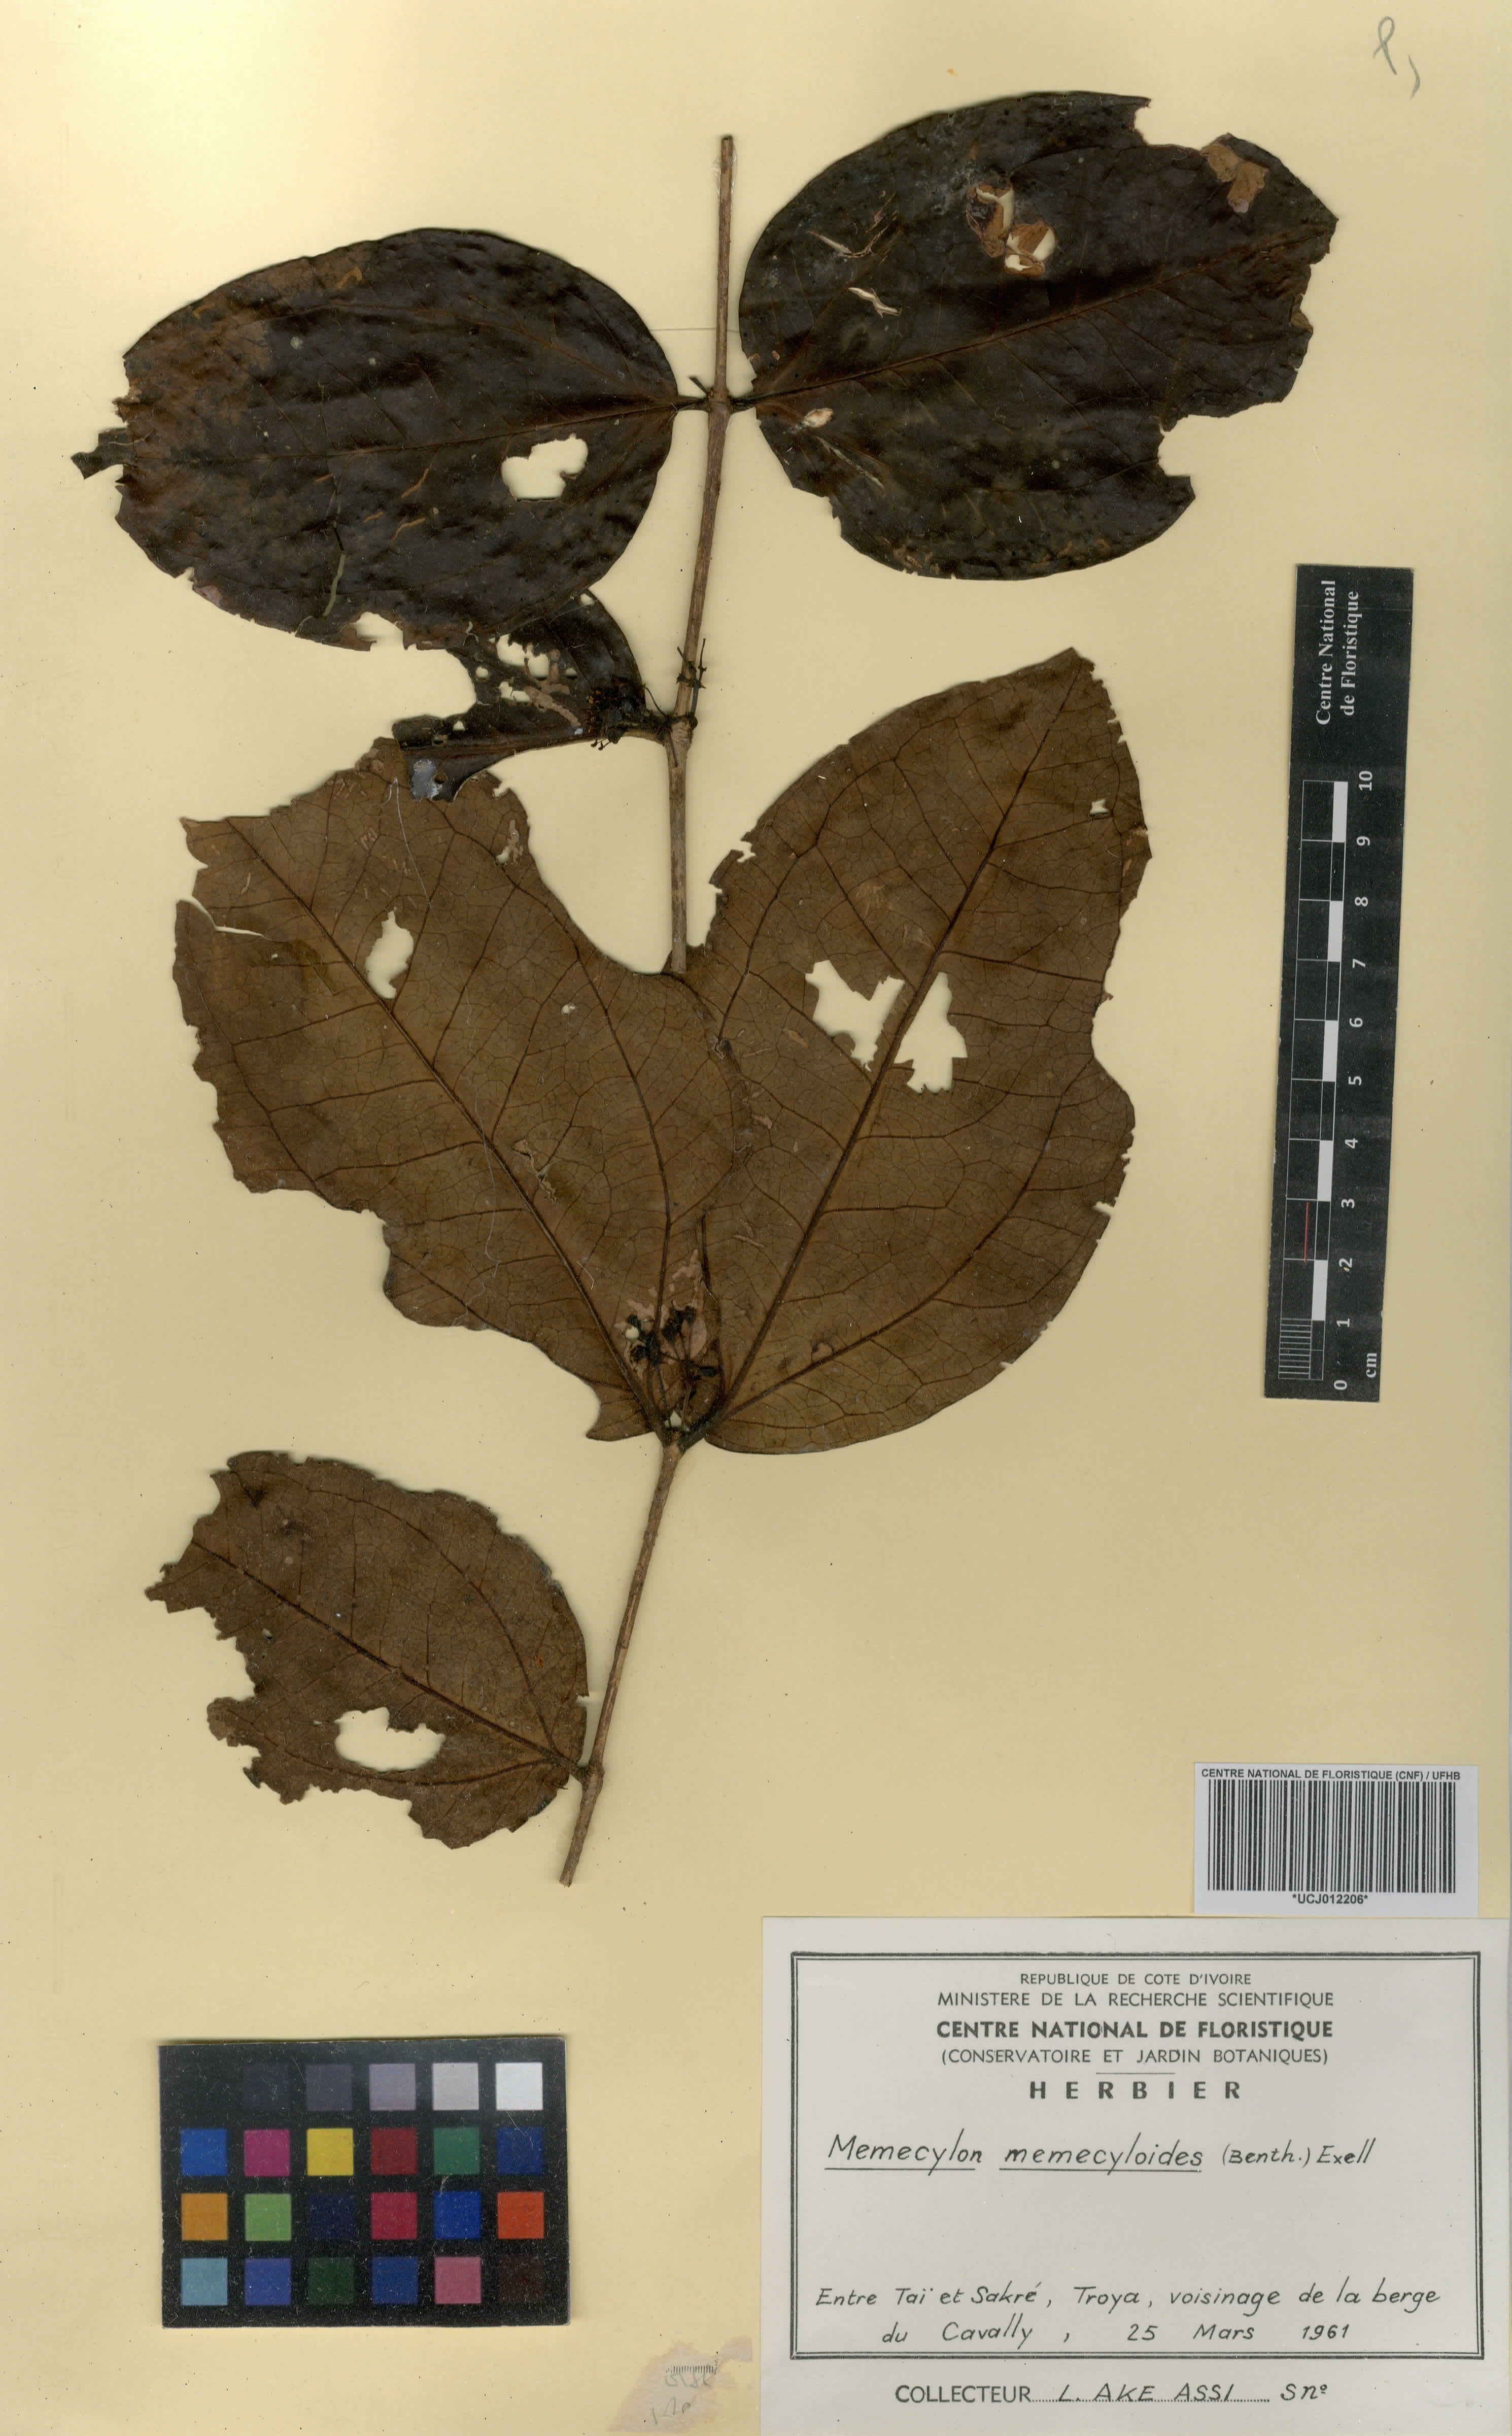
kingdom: Plantae
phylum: Tracheophyta
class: Magnoliopsida
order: Myrtales
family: Melastomataceae
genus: Warneckea
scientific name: Warneckea memecyloides
